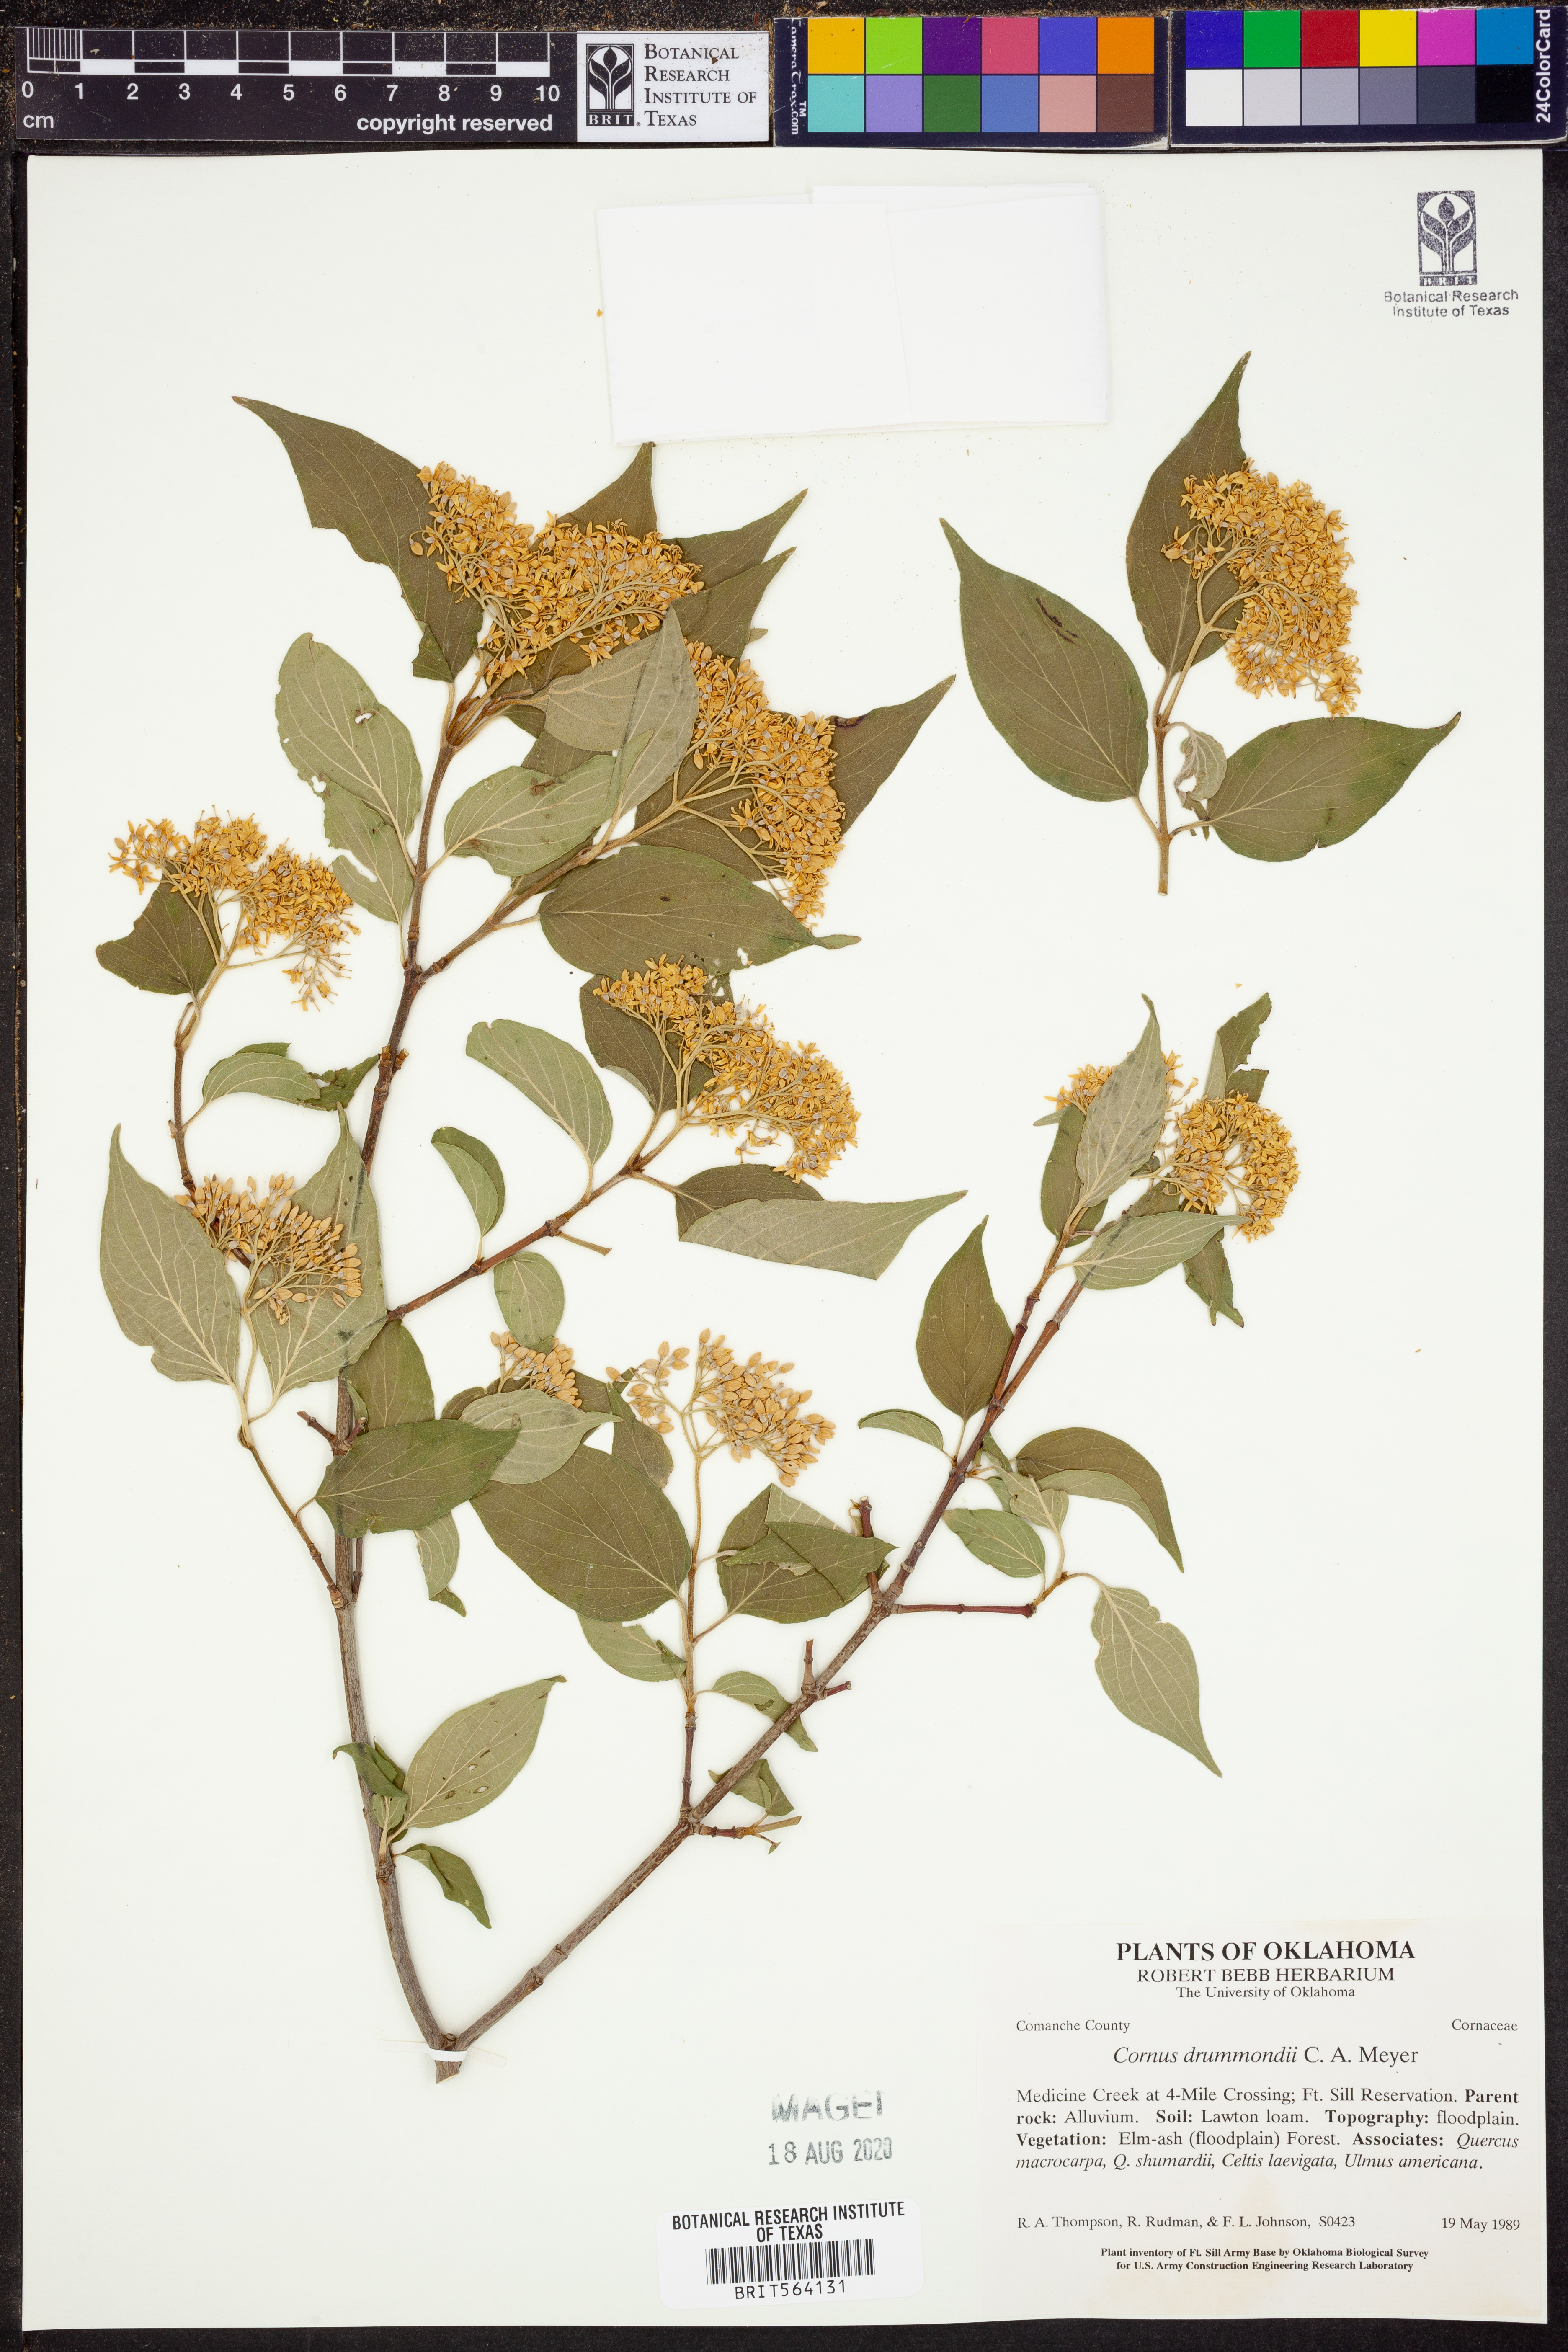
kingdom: Plantae
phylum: Tracheophyta
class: Magnoliopsida
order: Cornales
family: Cornaceae
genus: Cornus
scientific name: Cornus drummondii
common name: Rough-leaf dogwood
